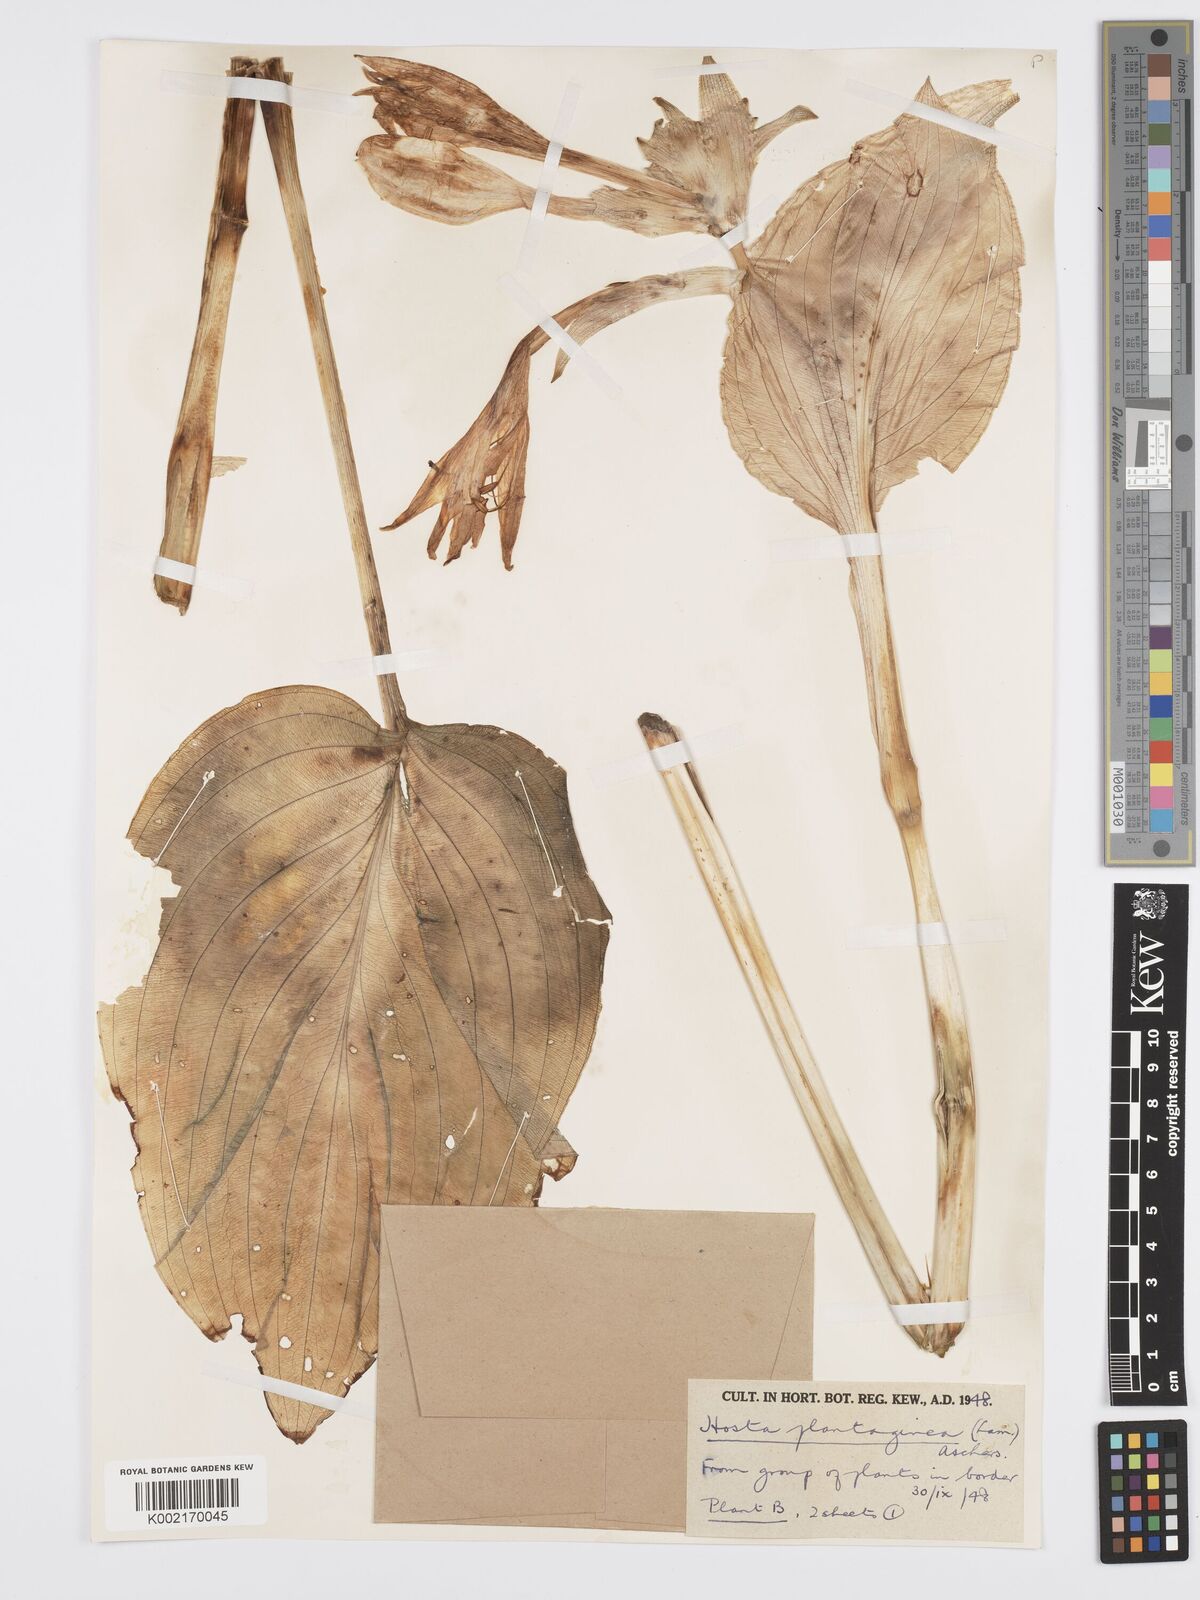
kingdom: Plantae
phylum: Tracheophyta
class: Liliopsida
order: Asparagales
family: Asparagaceae
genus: Hosta
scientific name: Hosta plantaginea
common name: August-lily
